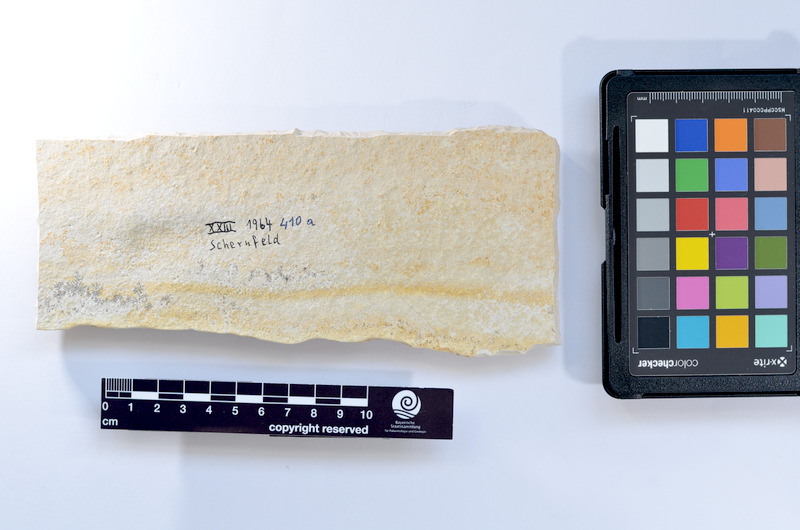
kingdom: Animalia
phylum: Chordata
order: Elopiformes
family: Anaethalionidae
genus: Anaethalion
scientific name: Anaethalion knorri
